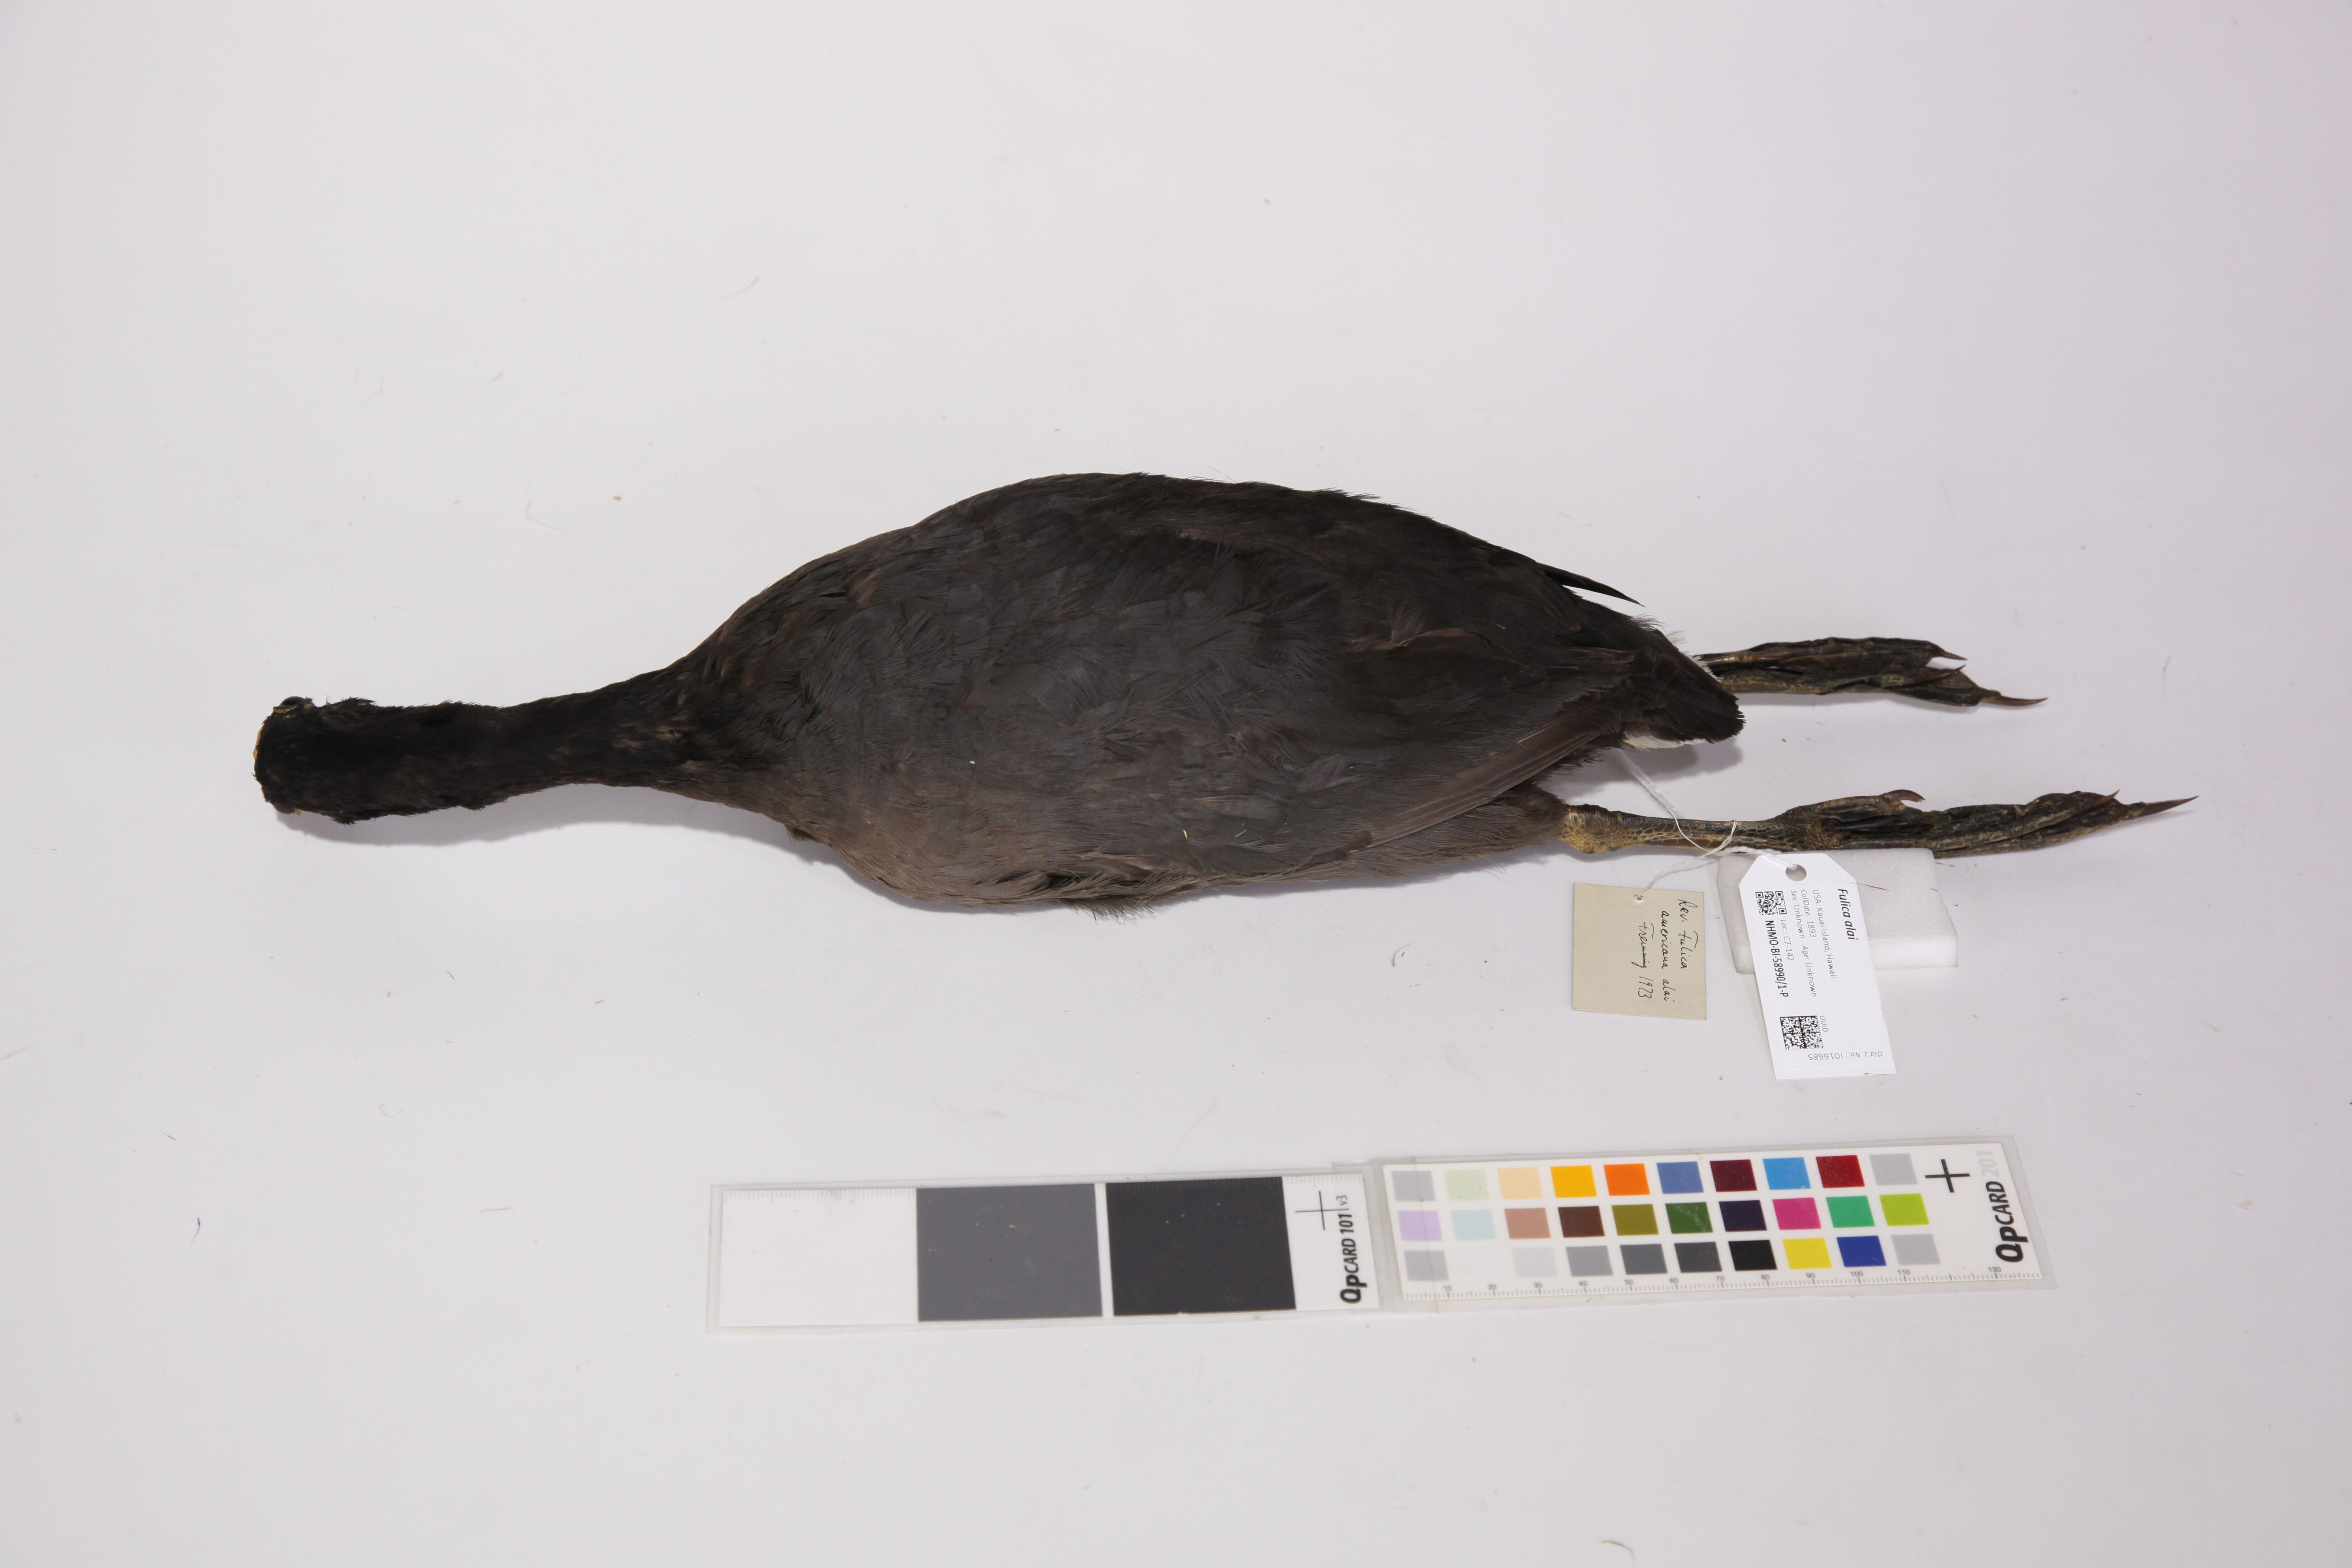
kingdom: Animalia
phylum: Chordata
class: Aves
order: Gruiformes
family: Rallidae
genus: Fulica
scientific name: Fulica alai
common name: Hawaiian coot
